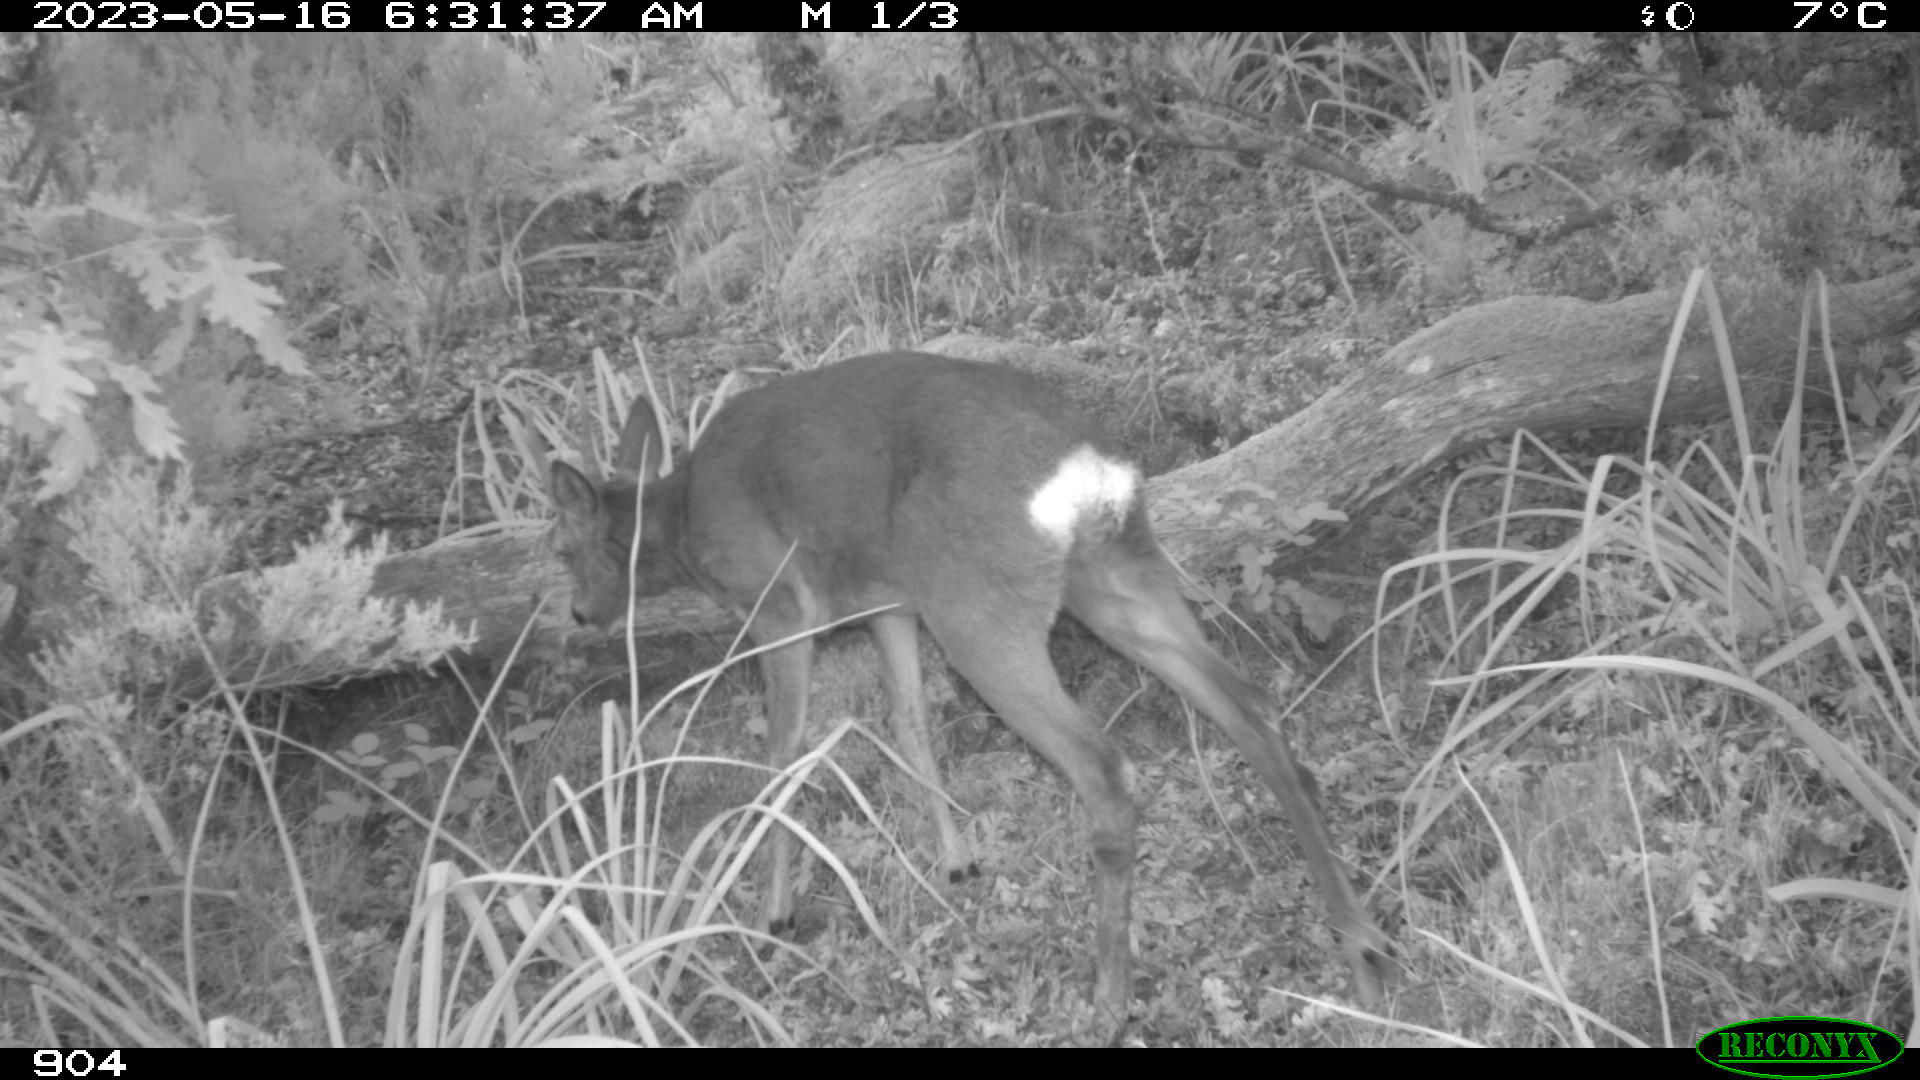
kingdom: Animalia
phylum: Chordata
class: Mammalia
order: Artiodactyla
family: Cervidae
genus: Capreolus
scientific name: Capreolus capreolus
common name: Western roe deer
